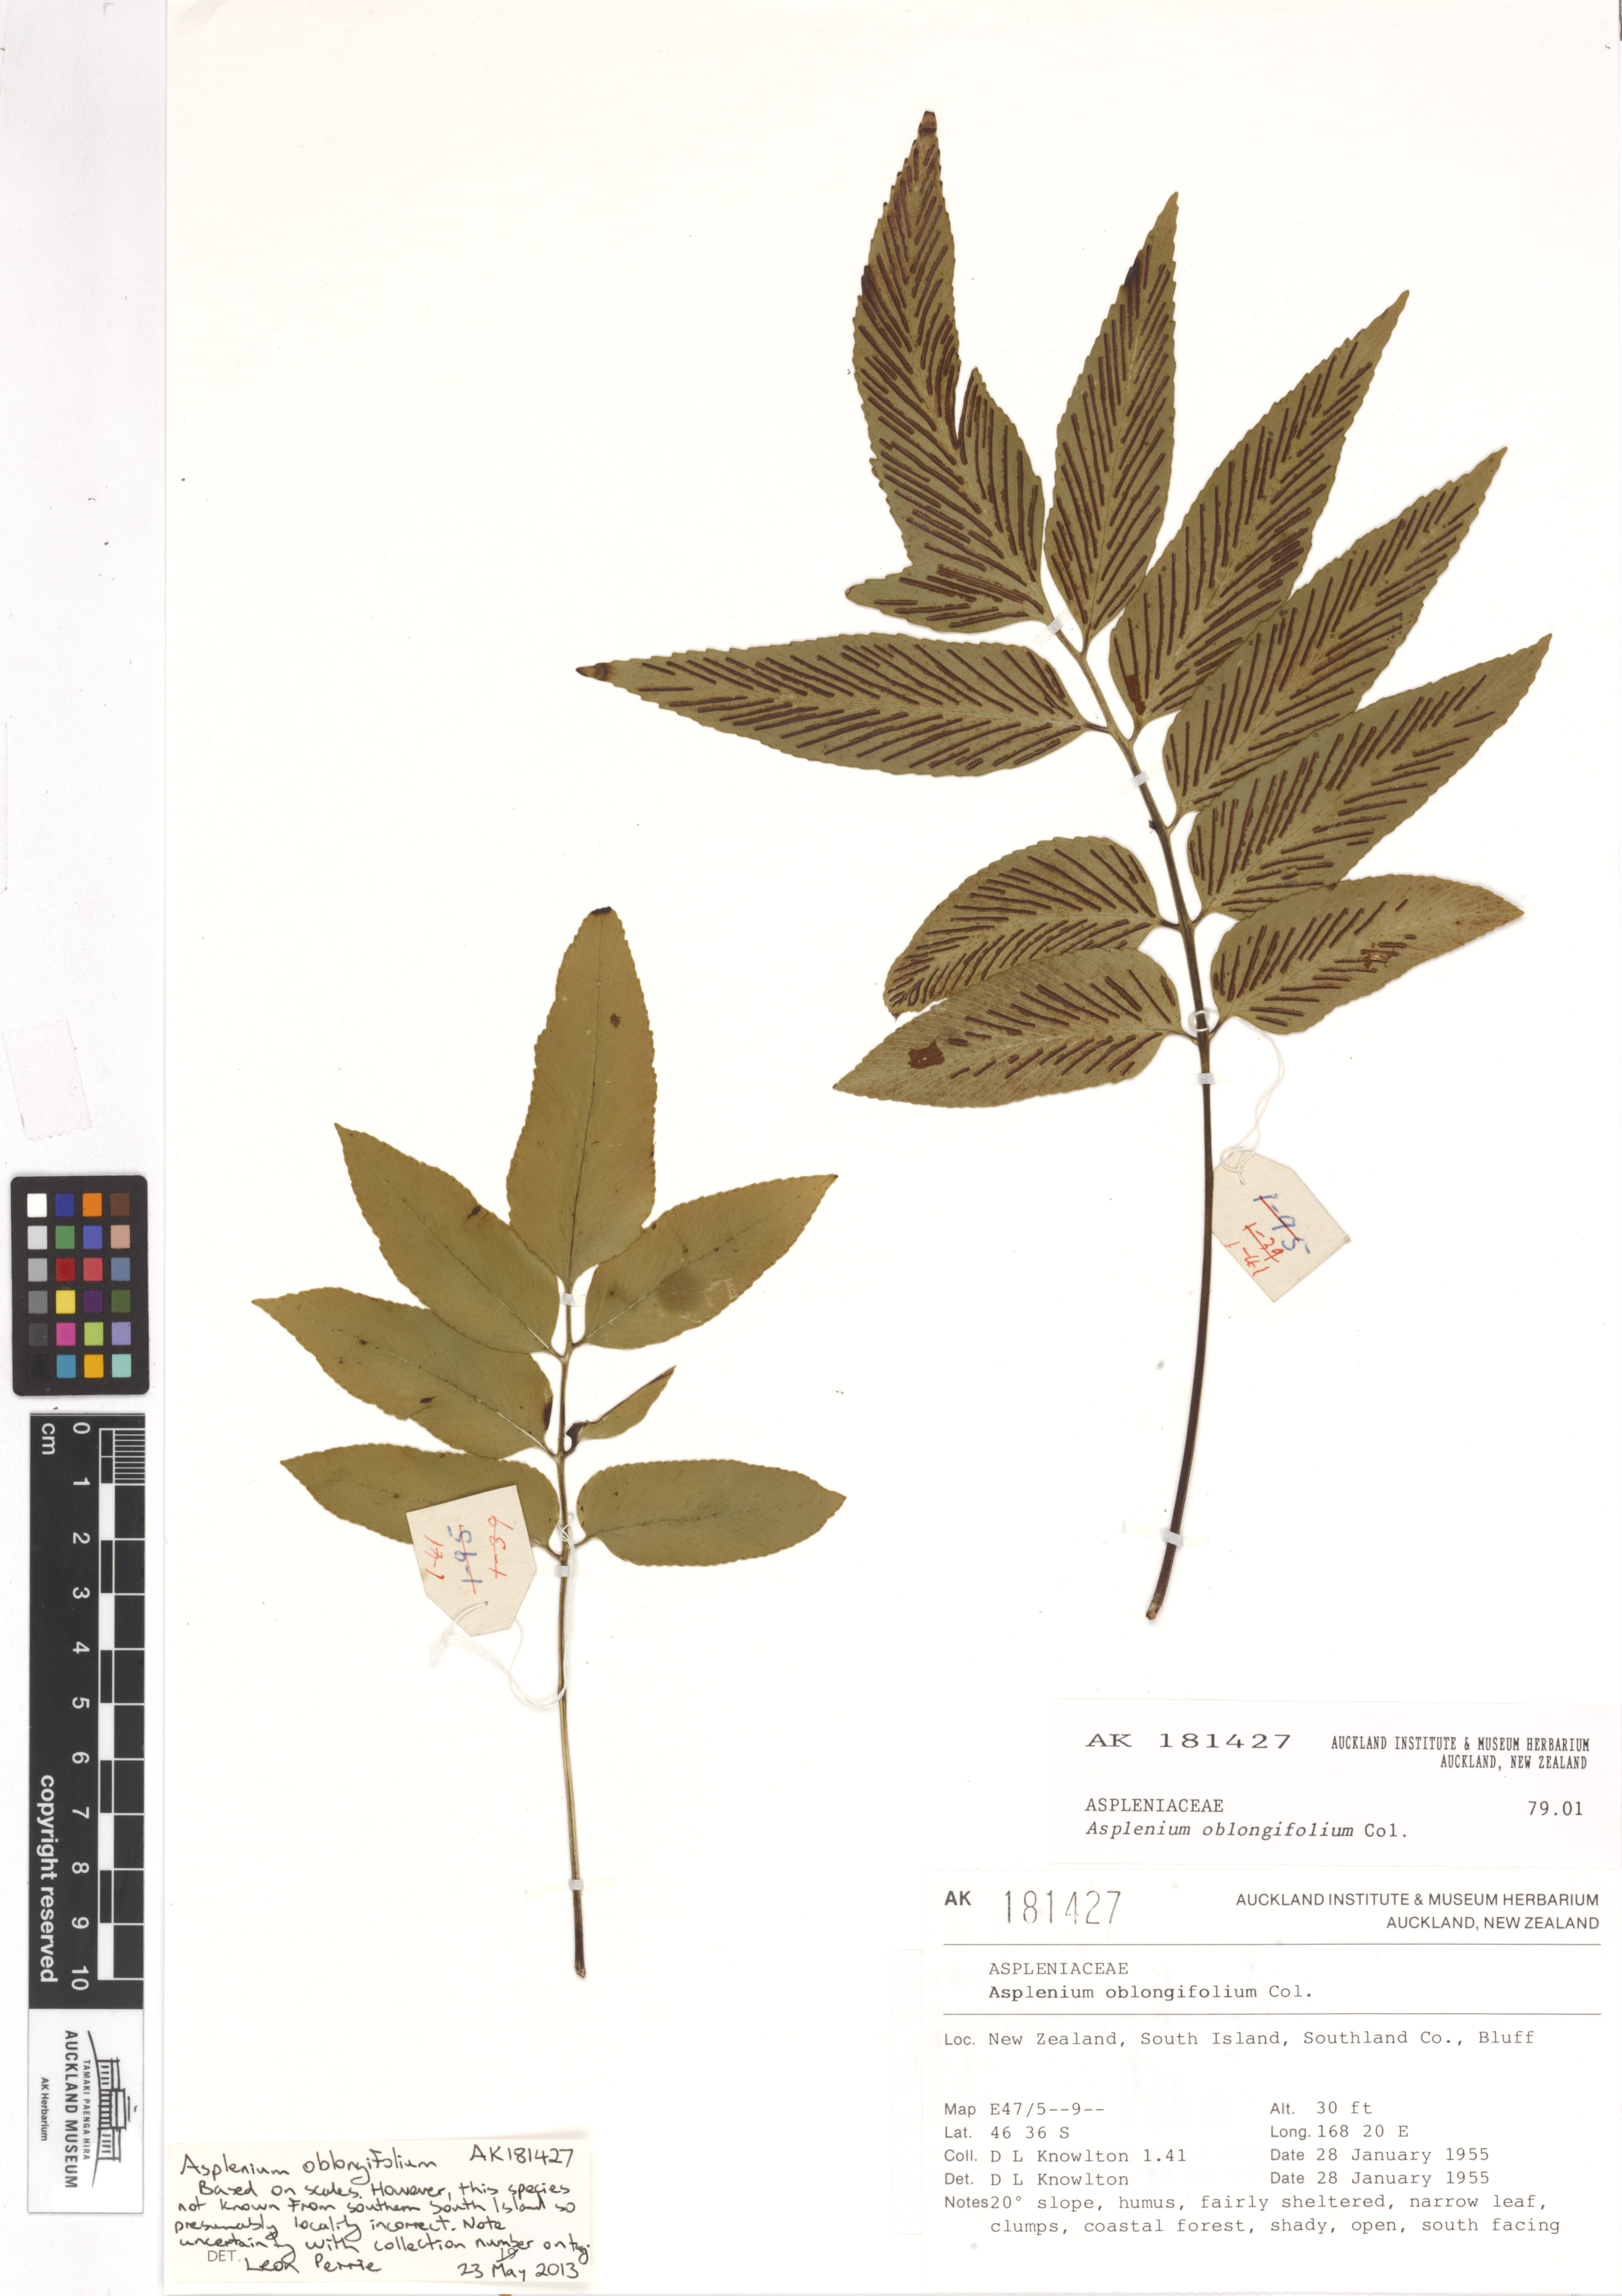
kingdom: Plantae
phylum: Tracheophyta
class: Polypodiopsida
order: Polypodiales
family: Aspleniaceae
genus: Asplenium
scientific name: Asplenium oblongifolium
